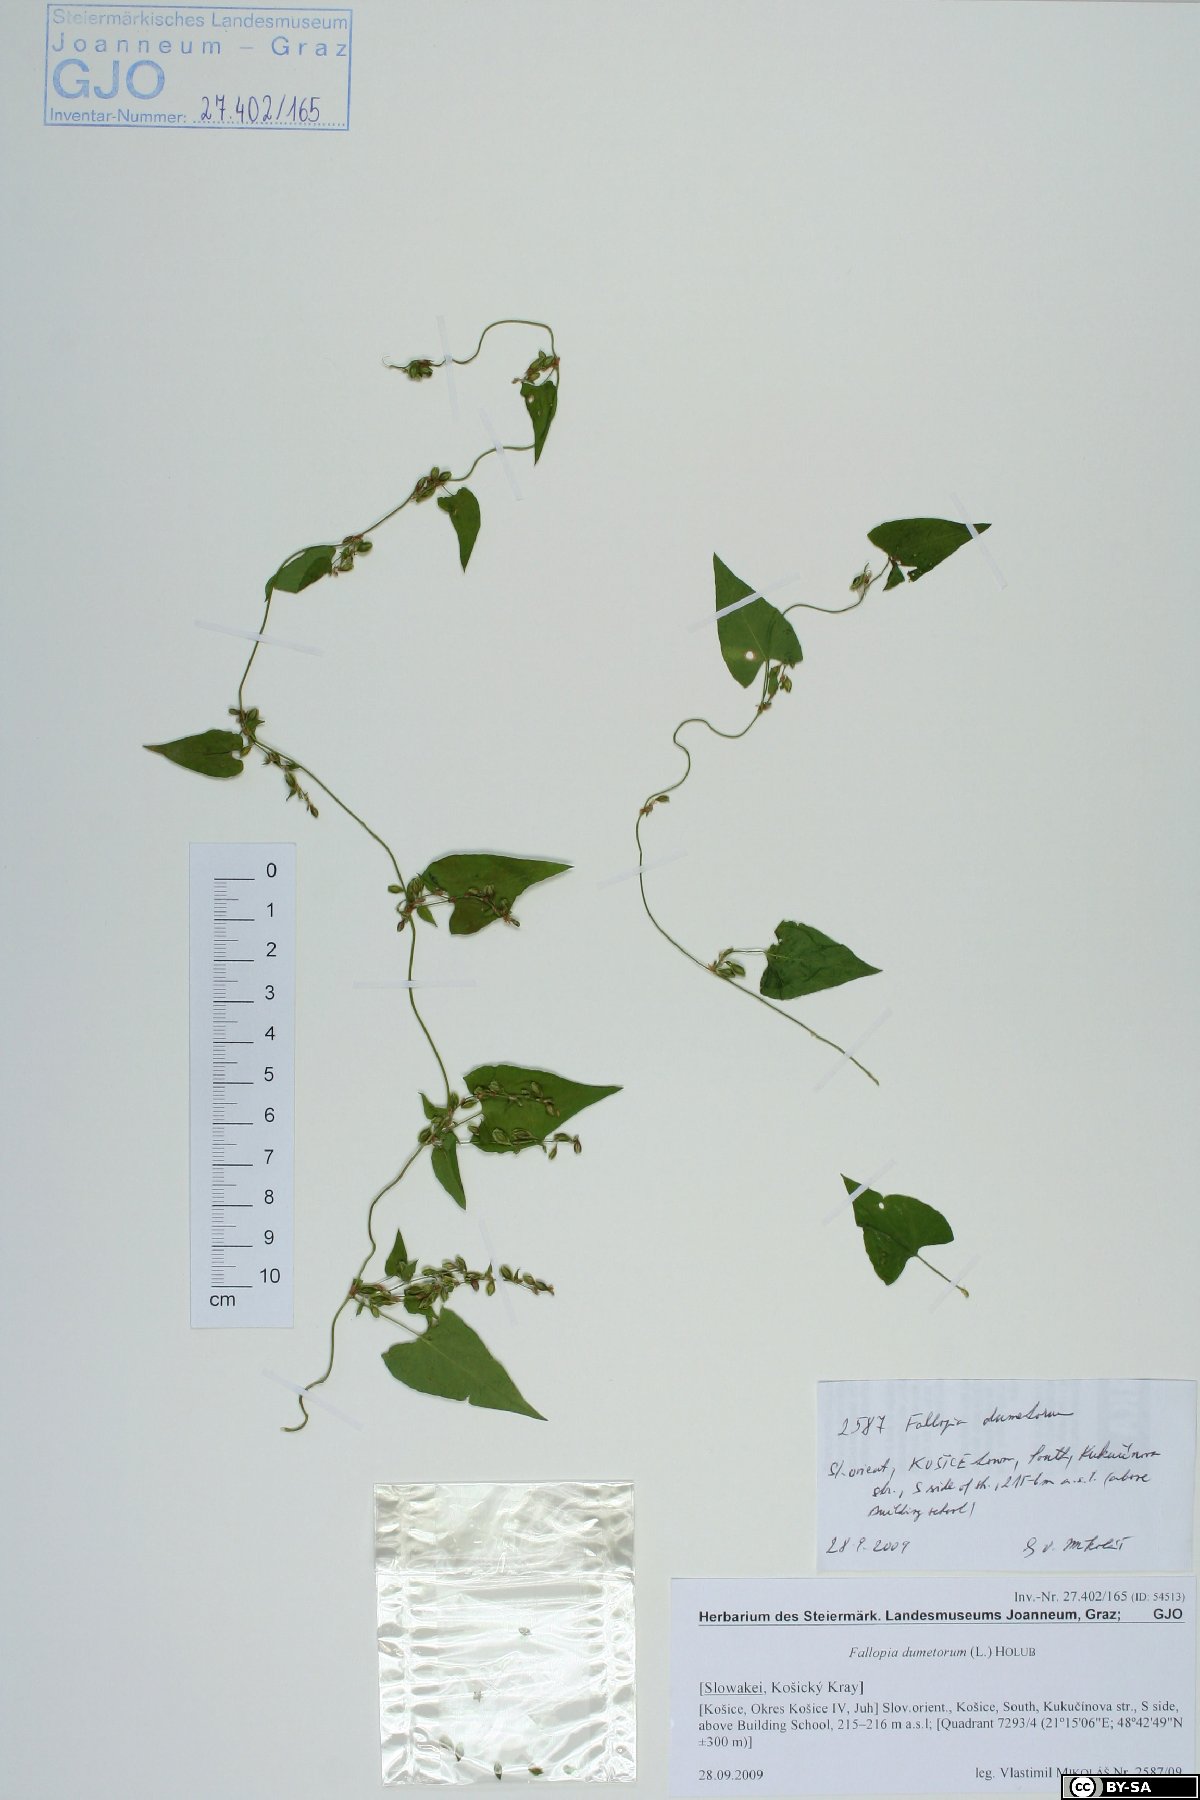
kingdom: Plantae
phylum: Tracheophyta
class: Magnoliopsida
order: Caryophyllales
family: Polygonaceae
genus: Fallopia
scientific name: Fallopia dumetorum
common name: Copse-bindweed
